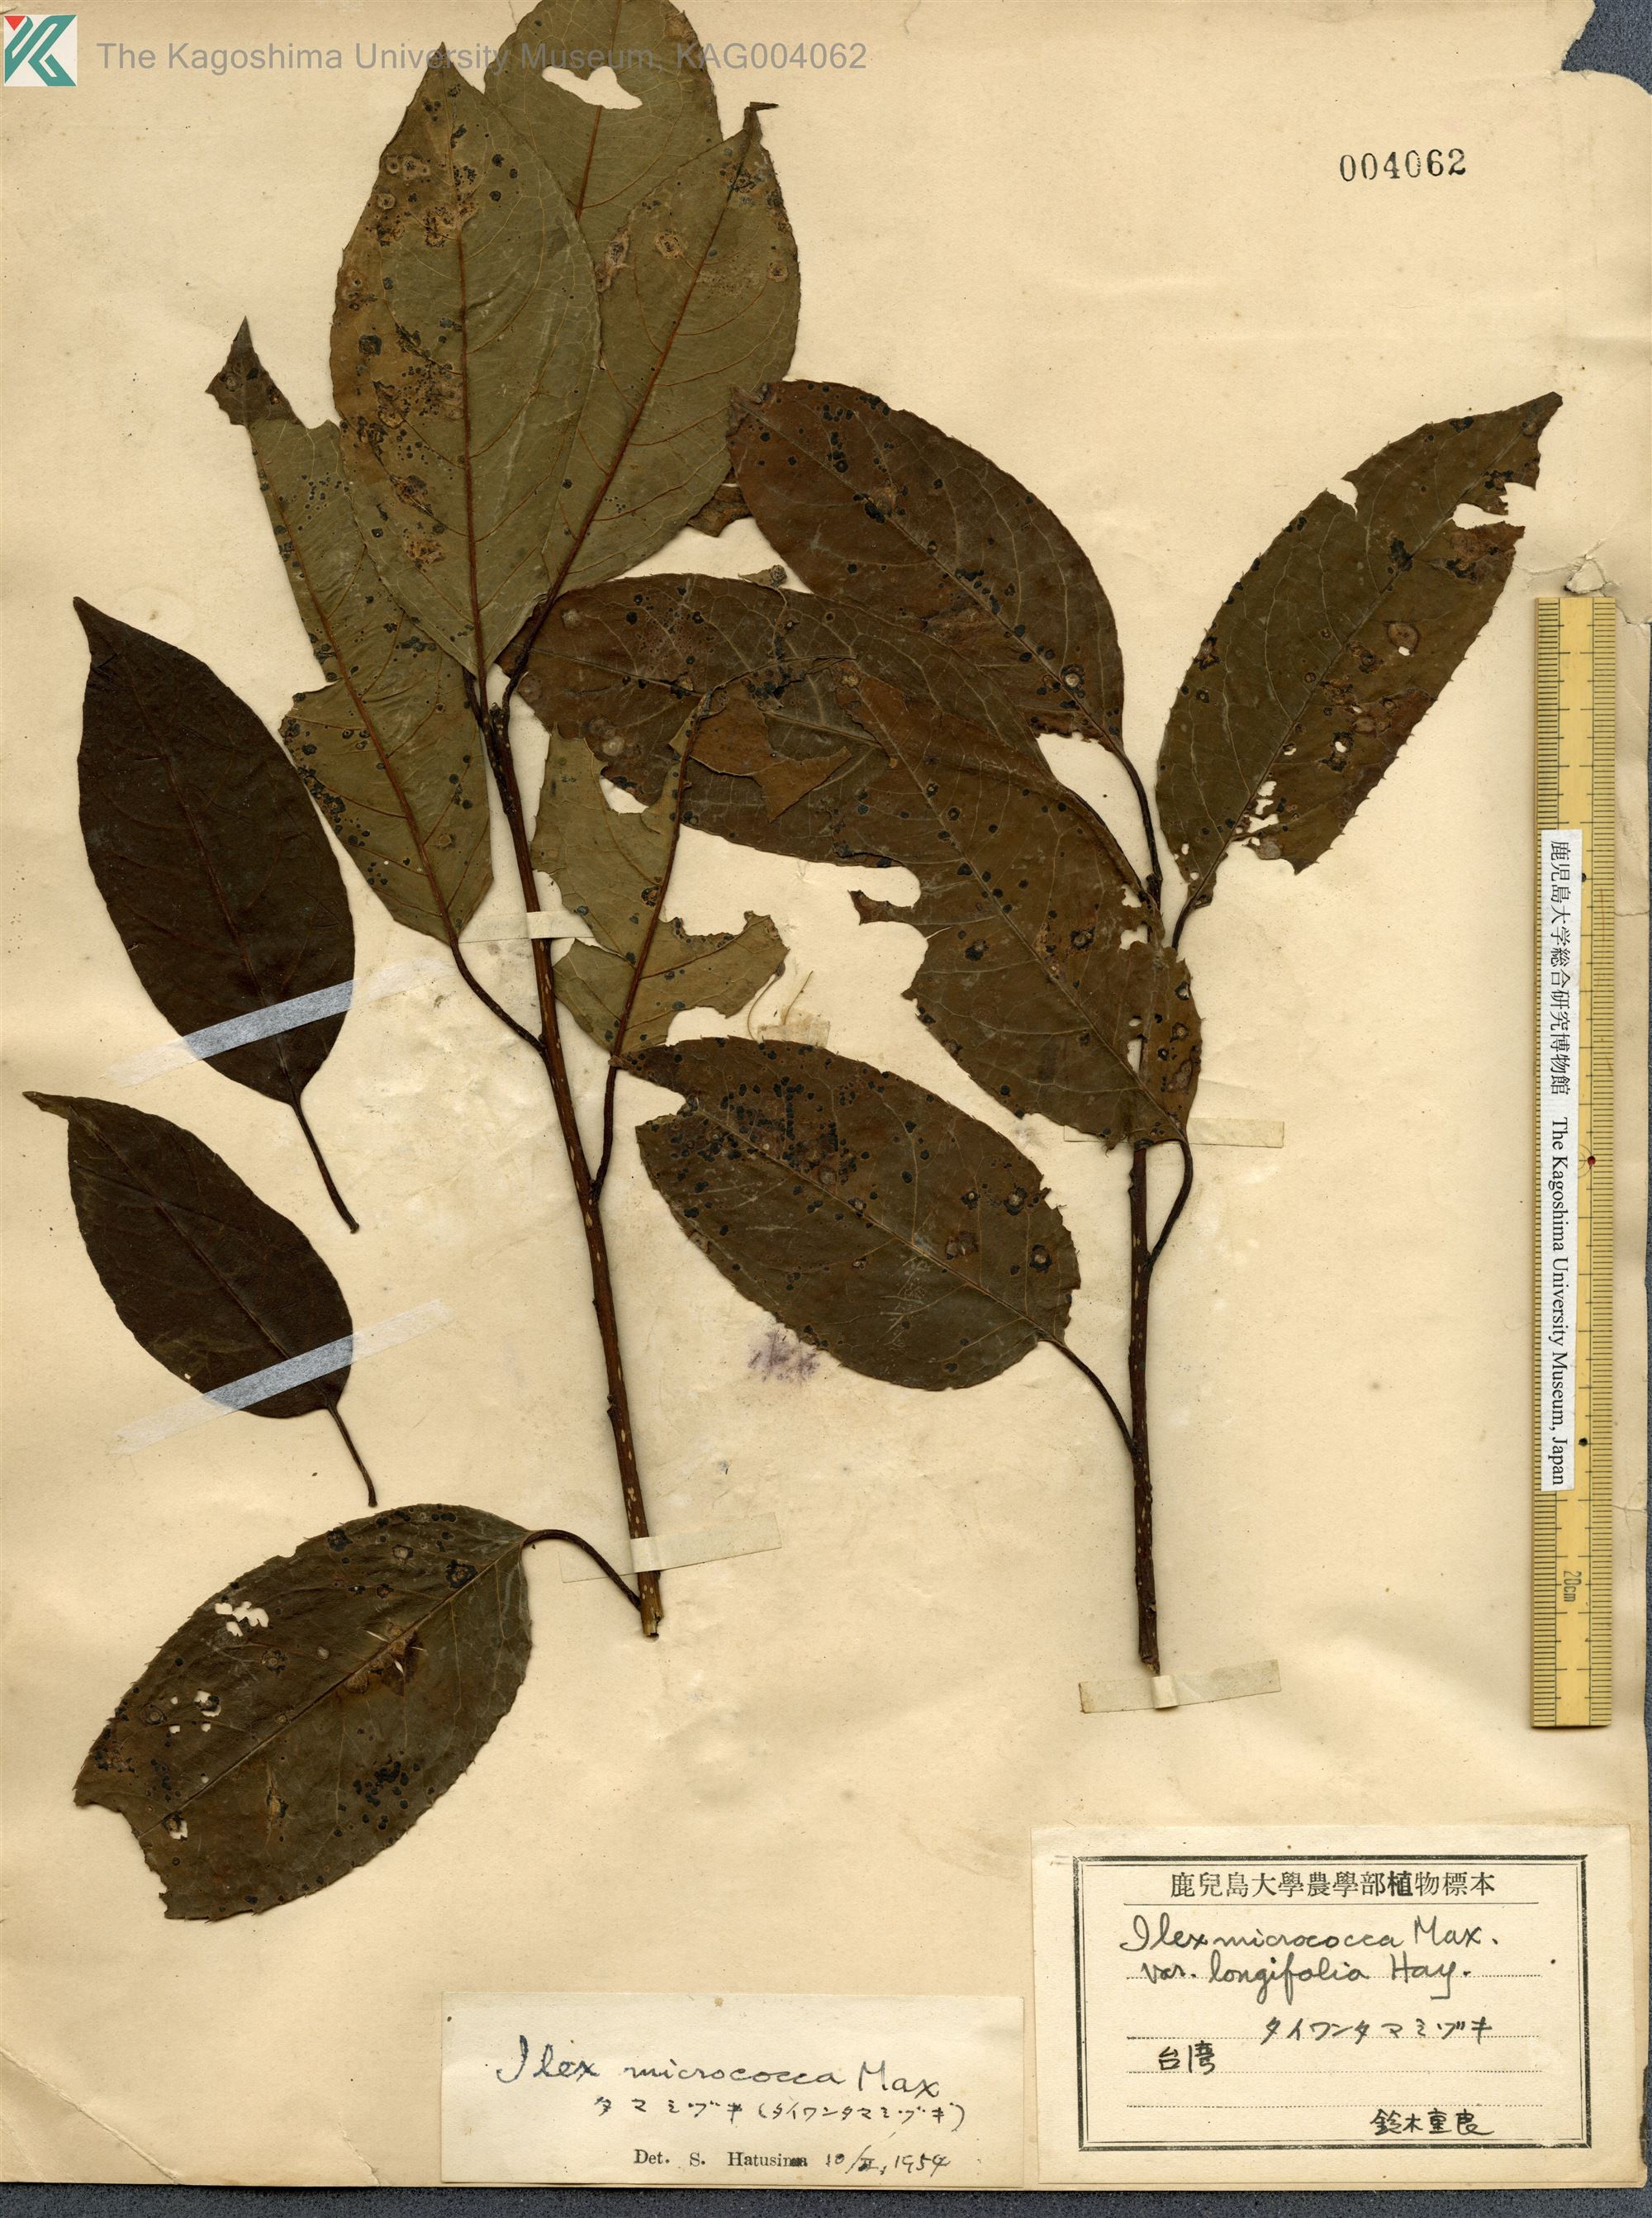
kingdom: Plantae
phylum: Tracheophyta
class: Magnoliopsida
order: Aquifoliales
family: Aquifoliaceae
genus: Ilex
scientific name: Ilex rotunda
